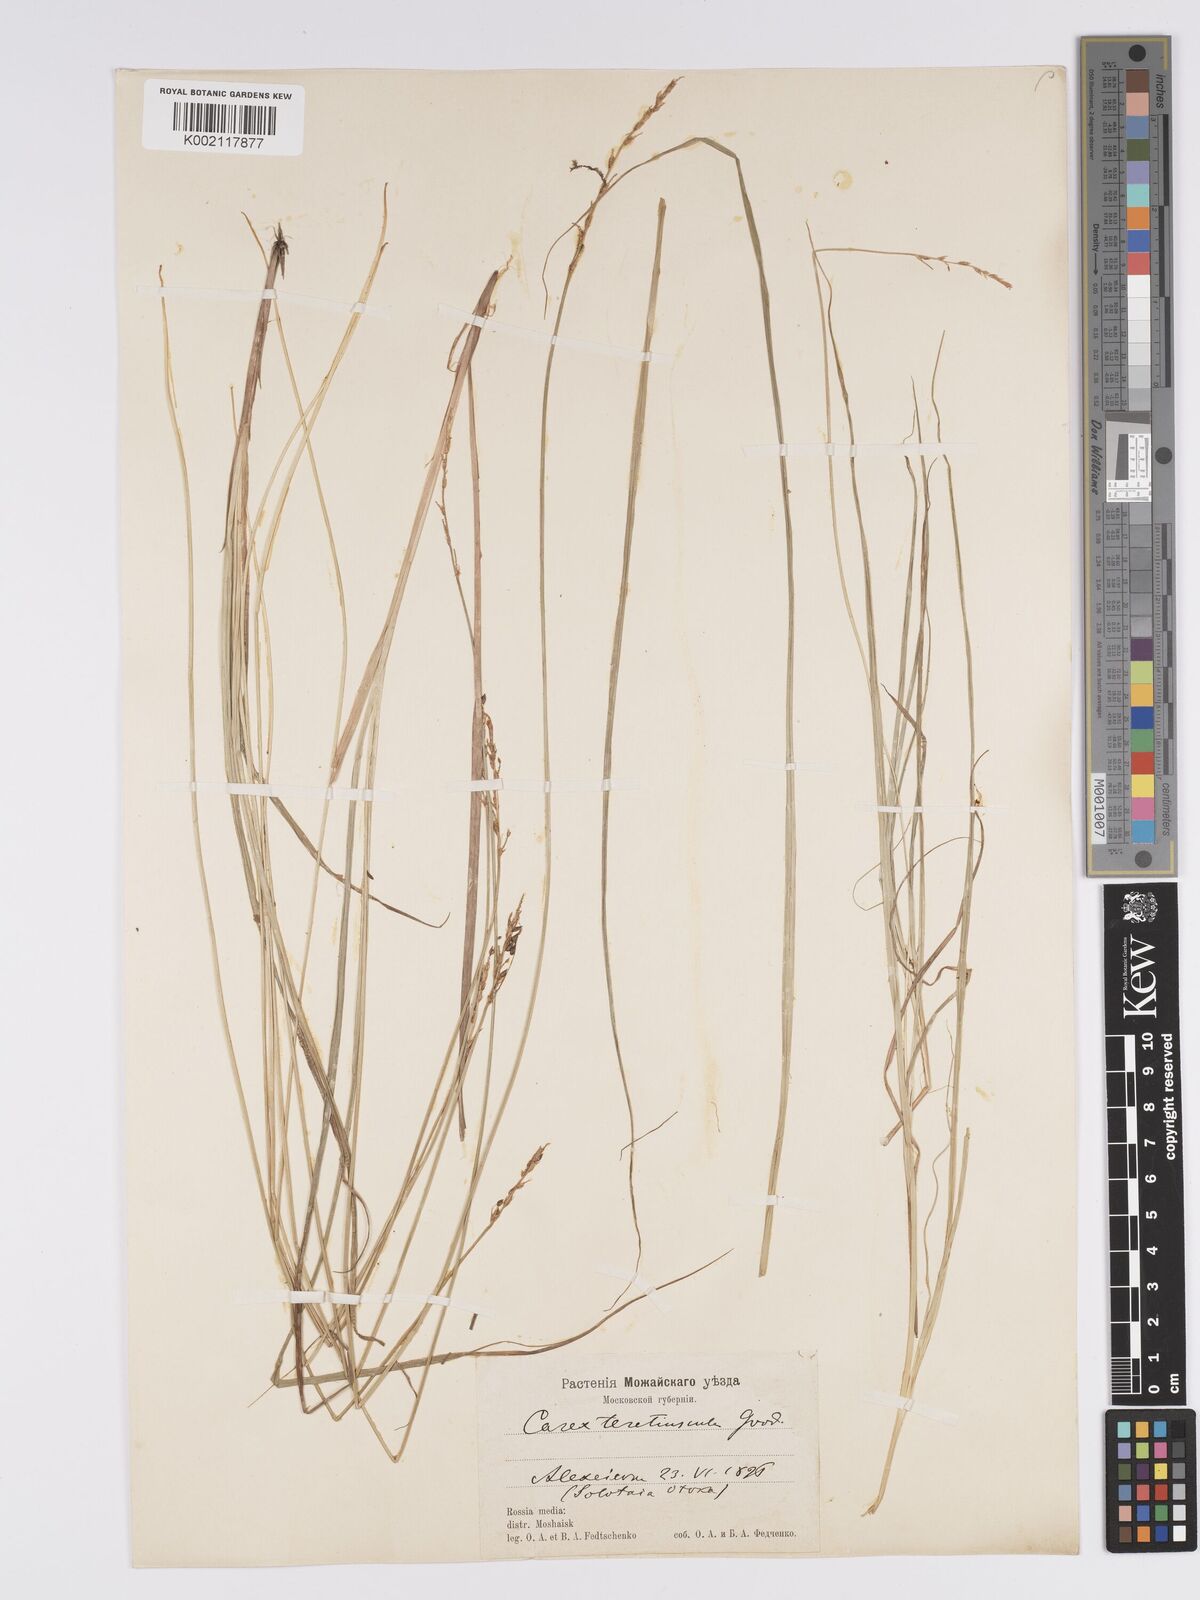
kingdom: Plantae
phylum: Tracheophyta
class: Liliopsida
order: Poales
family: Cyperaceae
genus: Carex
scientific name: Carex diandra
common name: Lesser tussock-sedge
